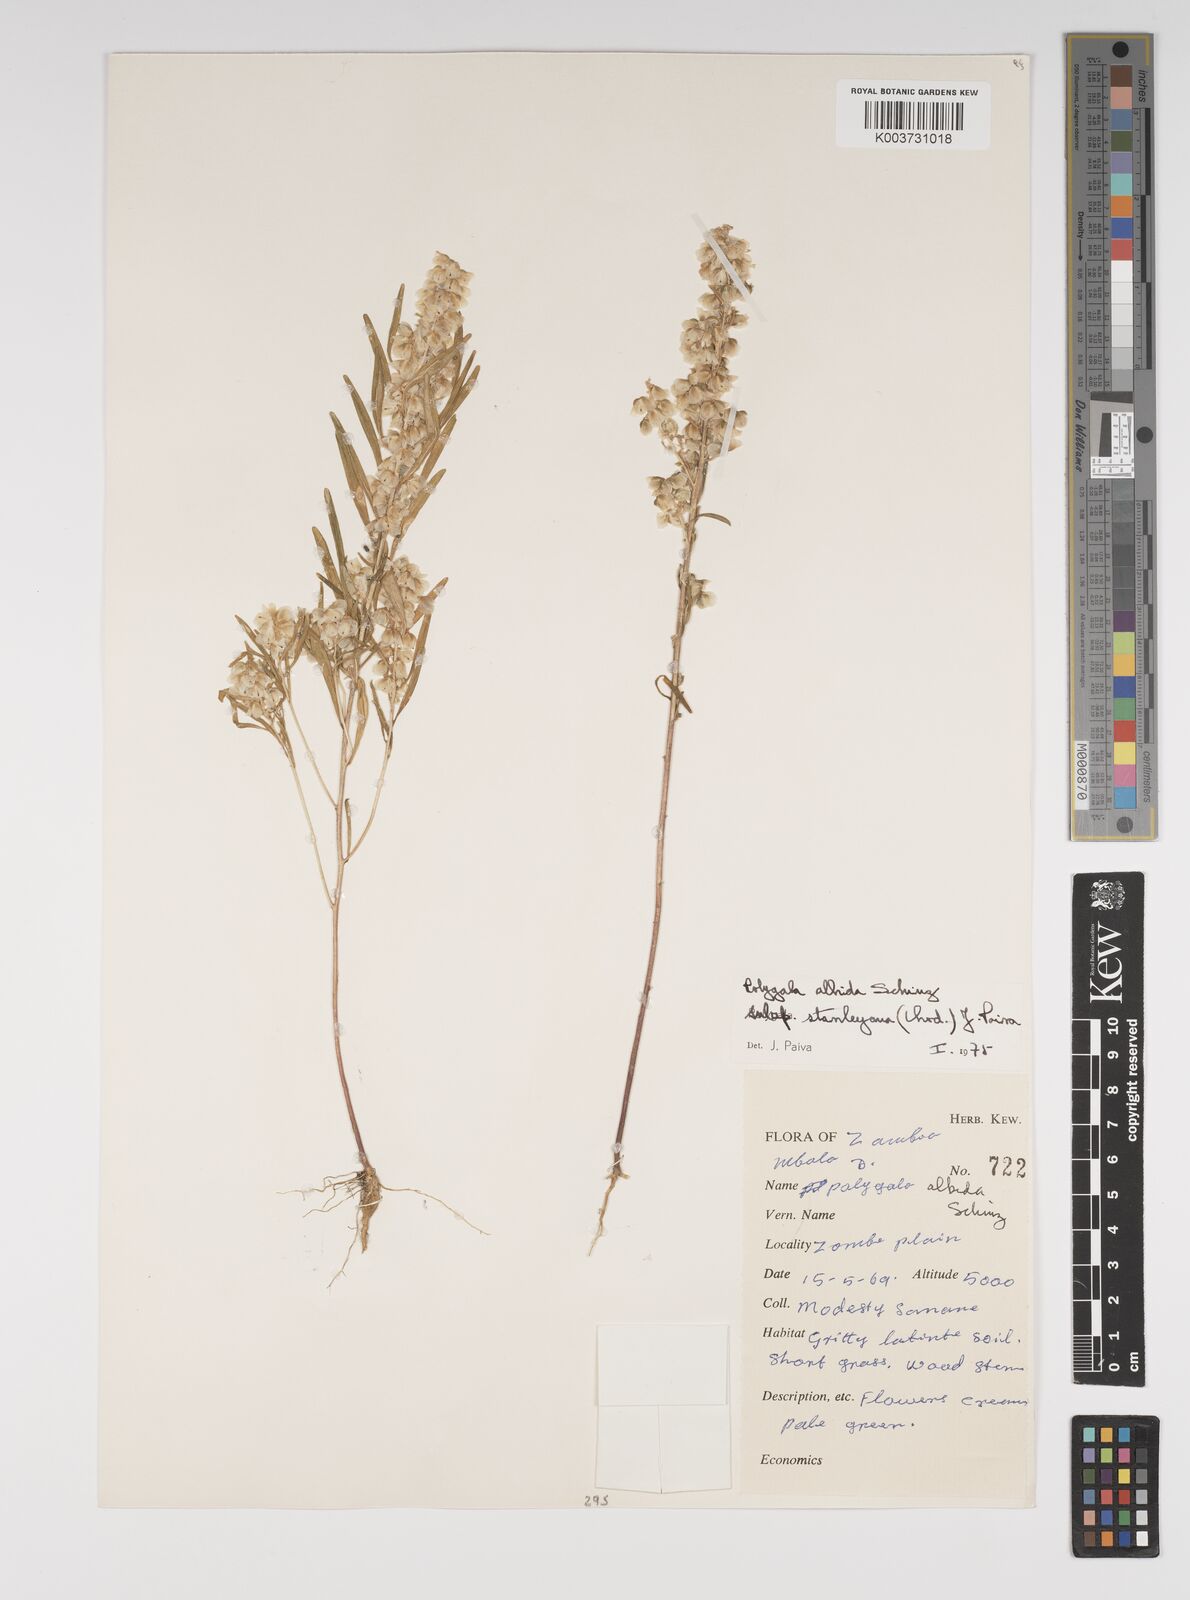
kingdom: Plantae
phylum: Tracheophyta
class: Magnoliopsida
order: Fabales
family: Polygalaceae
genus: Polygala
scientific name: Polygala albida
